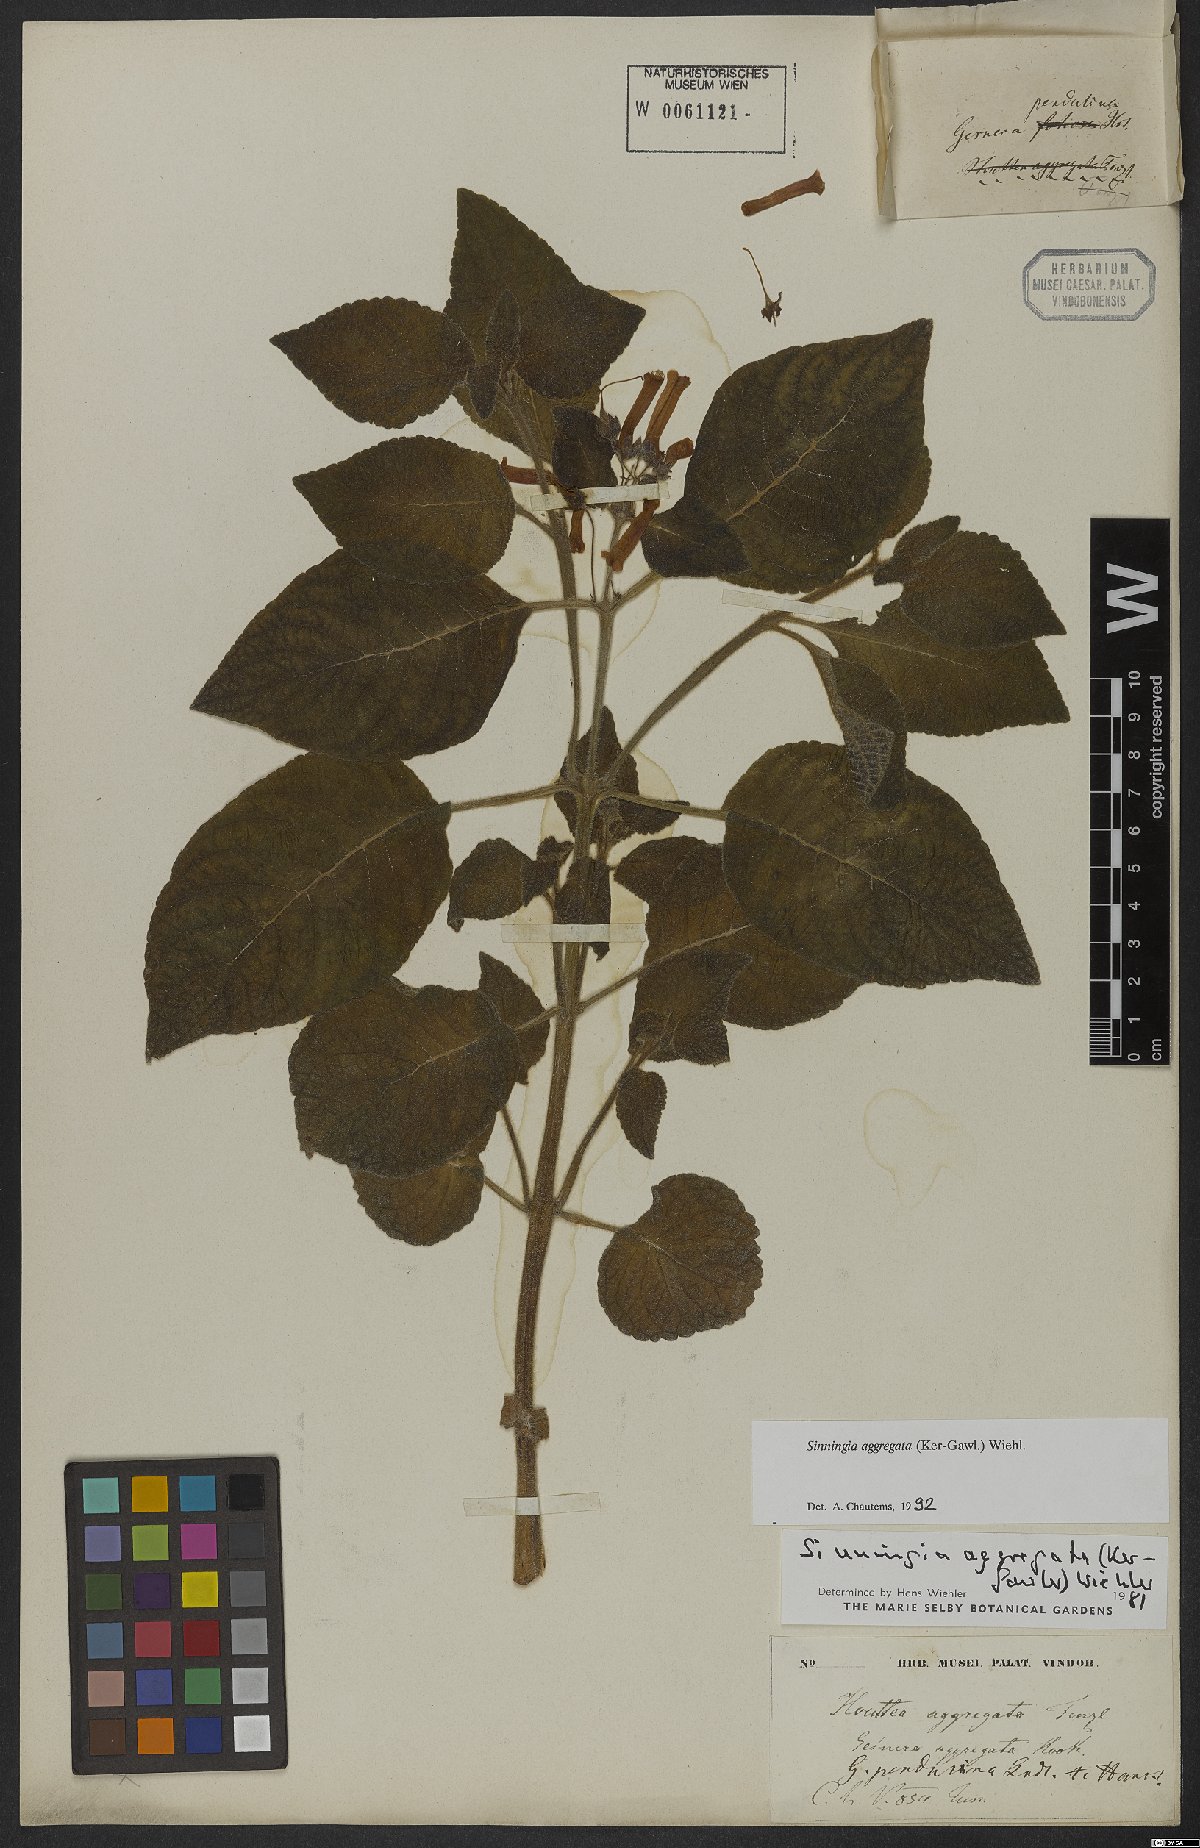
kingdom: Plantae
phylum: Tracheophyta
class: Magnoliopsida
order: Lamiales
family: Gesneriaceae
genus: Sinningia
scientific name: Sinningia aggregata
